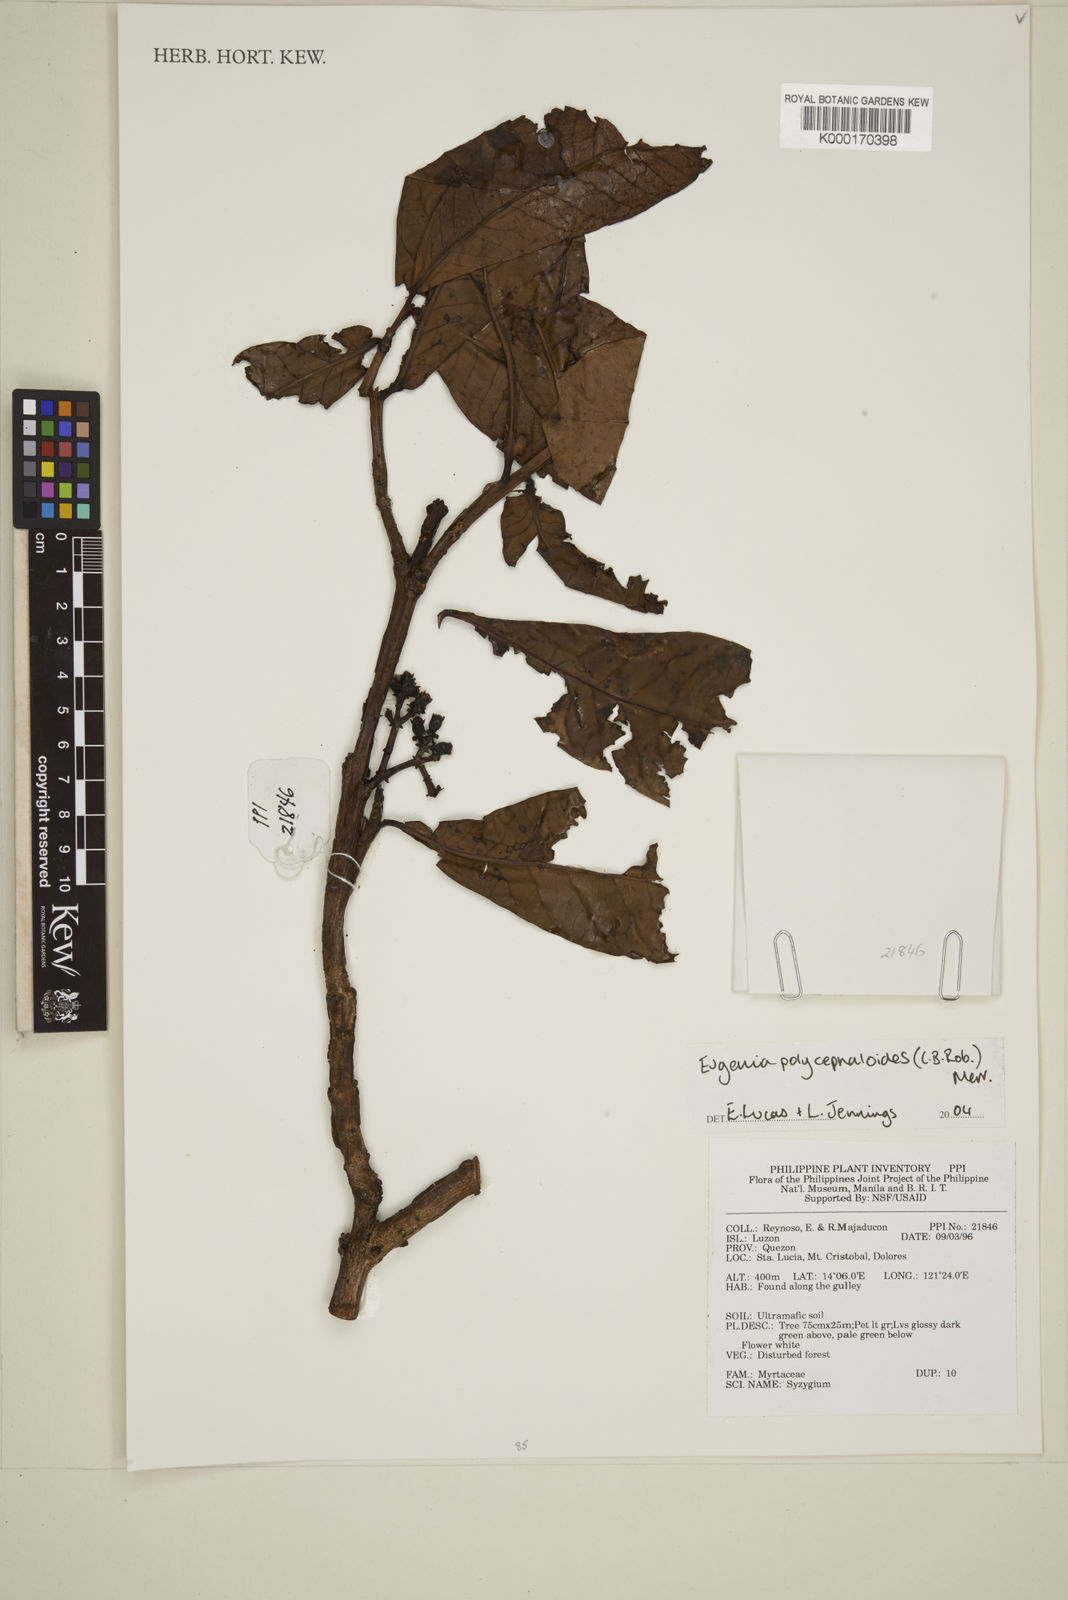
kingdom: Plantae
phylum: Tracheophyta
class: Magnoliopsida
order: Myrtales
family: Myrtaceae
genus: Eugenia
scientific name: Eugenia
